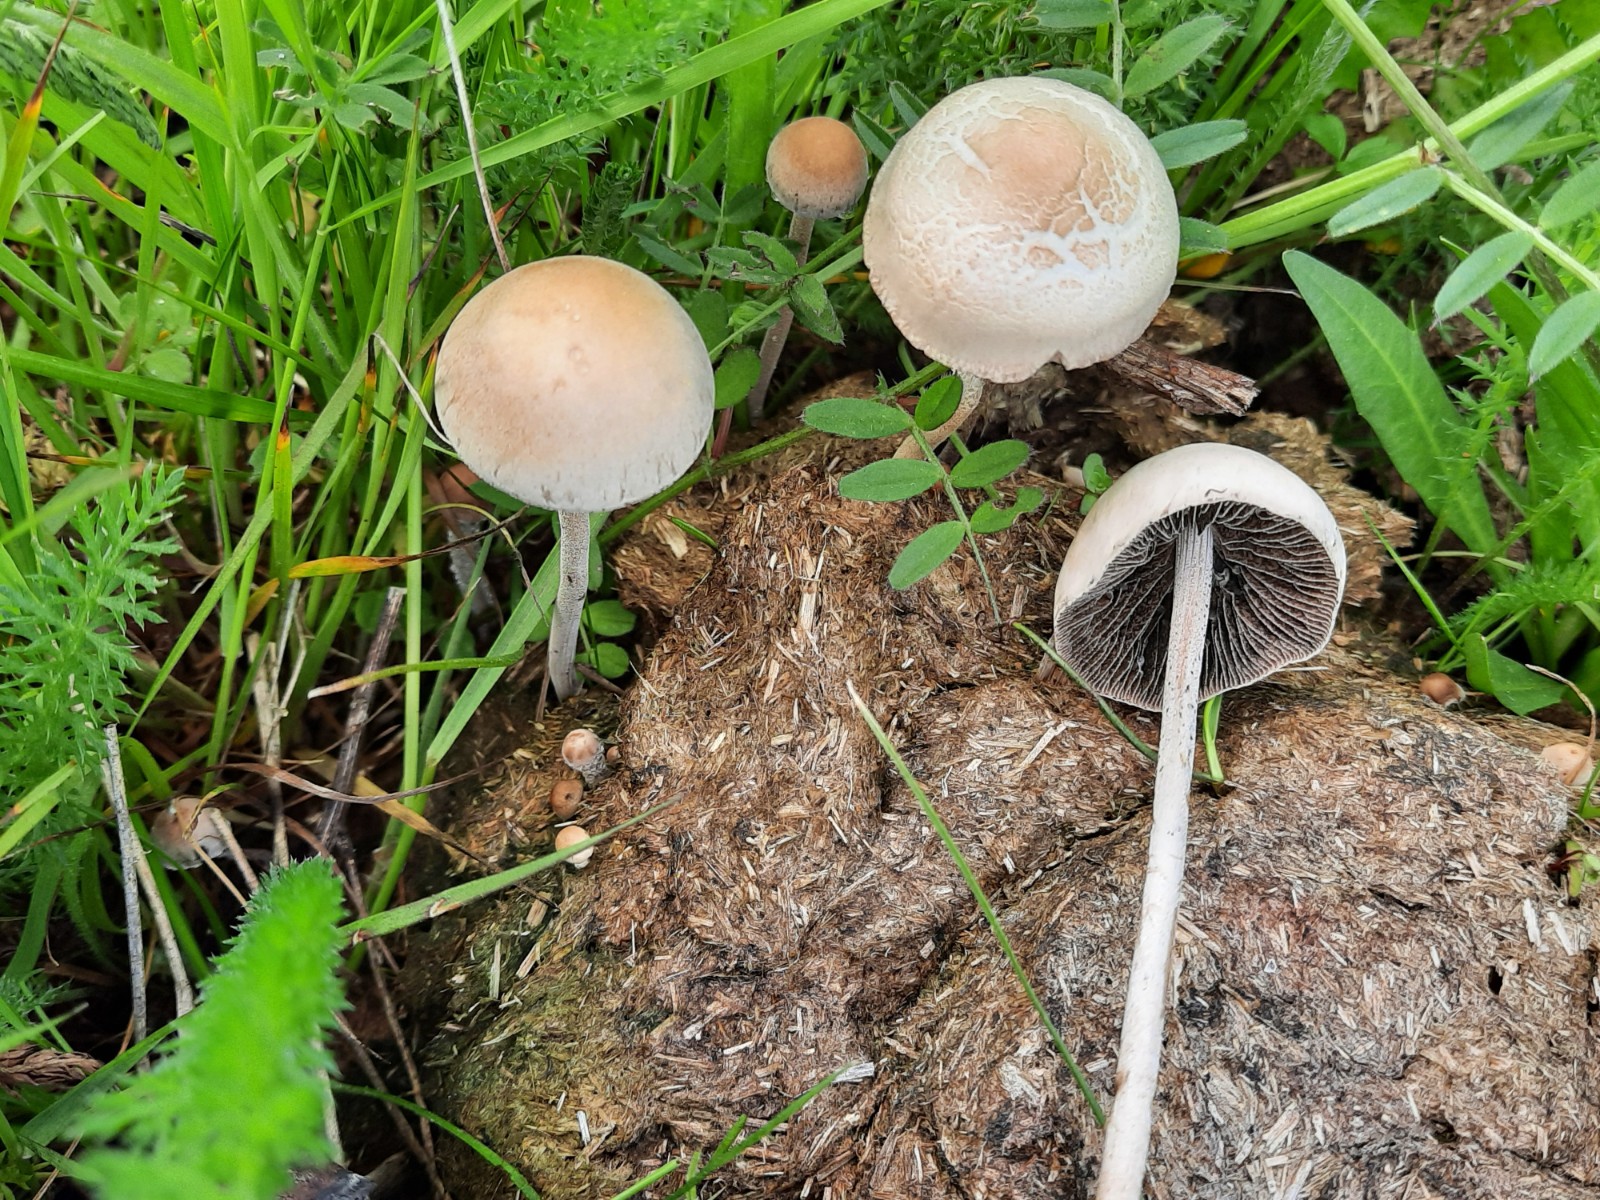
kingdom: Fungi
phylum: Basidiomycota
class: Agaricomycetes
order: Agaricales
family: Bolbitiaceae
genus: Panaeolus
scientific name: Panaeolus
